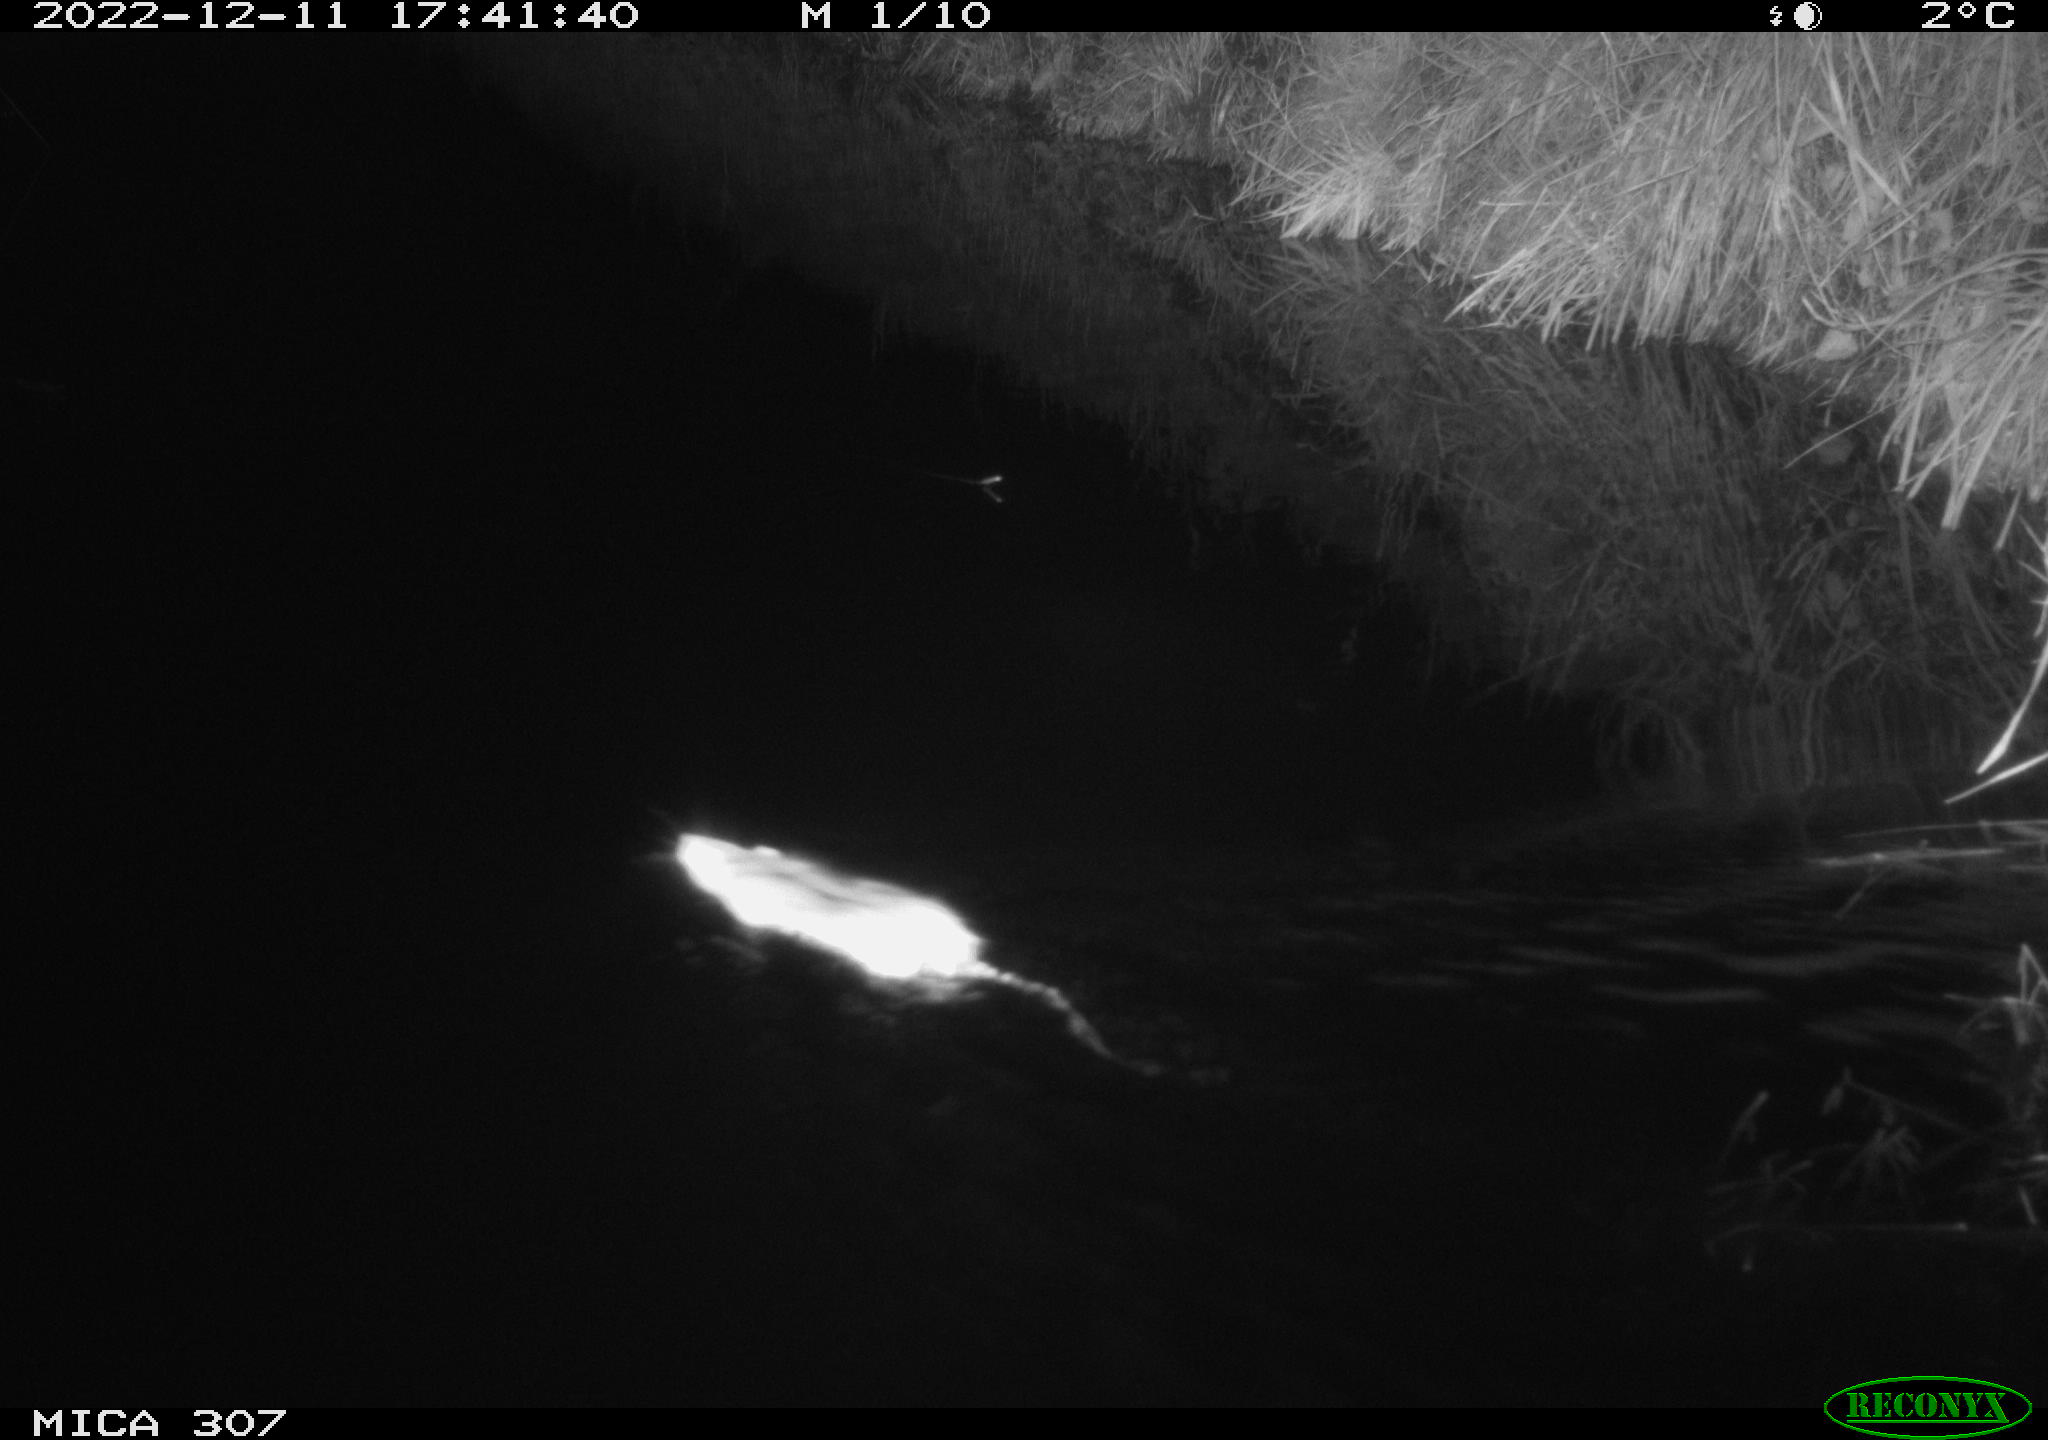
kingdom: Animalia
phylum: Chordata
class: Mammalia
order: Rodentia
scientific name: Rodentia
